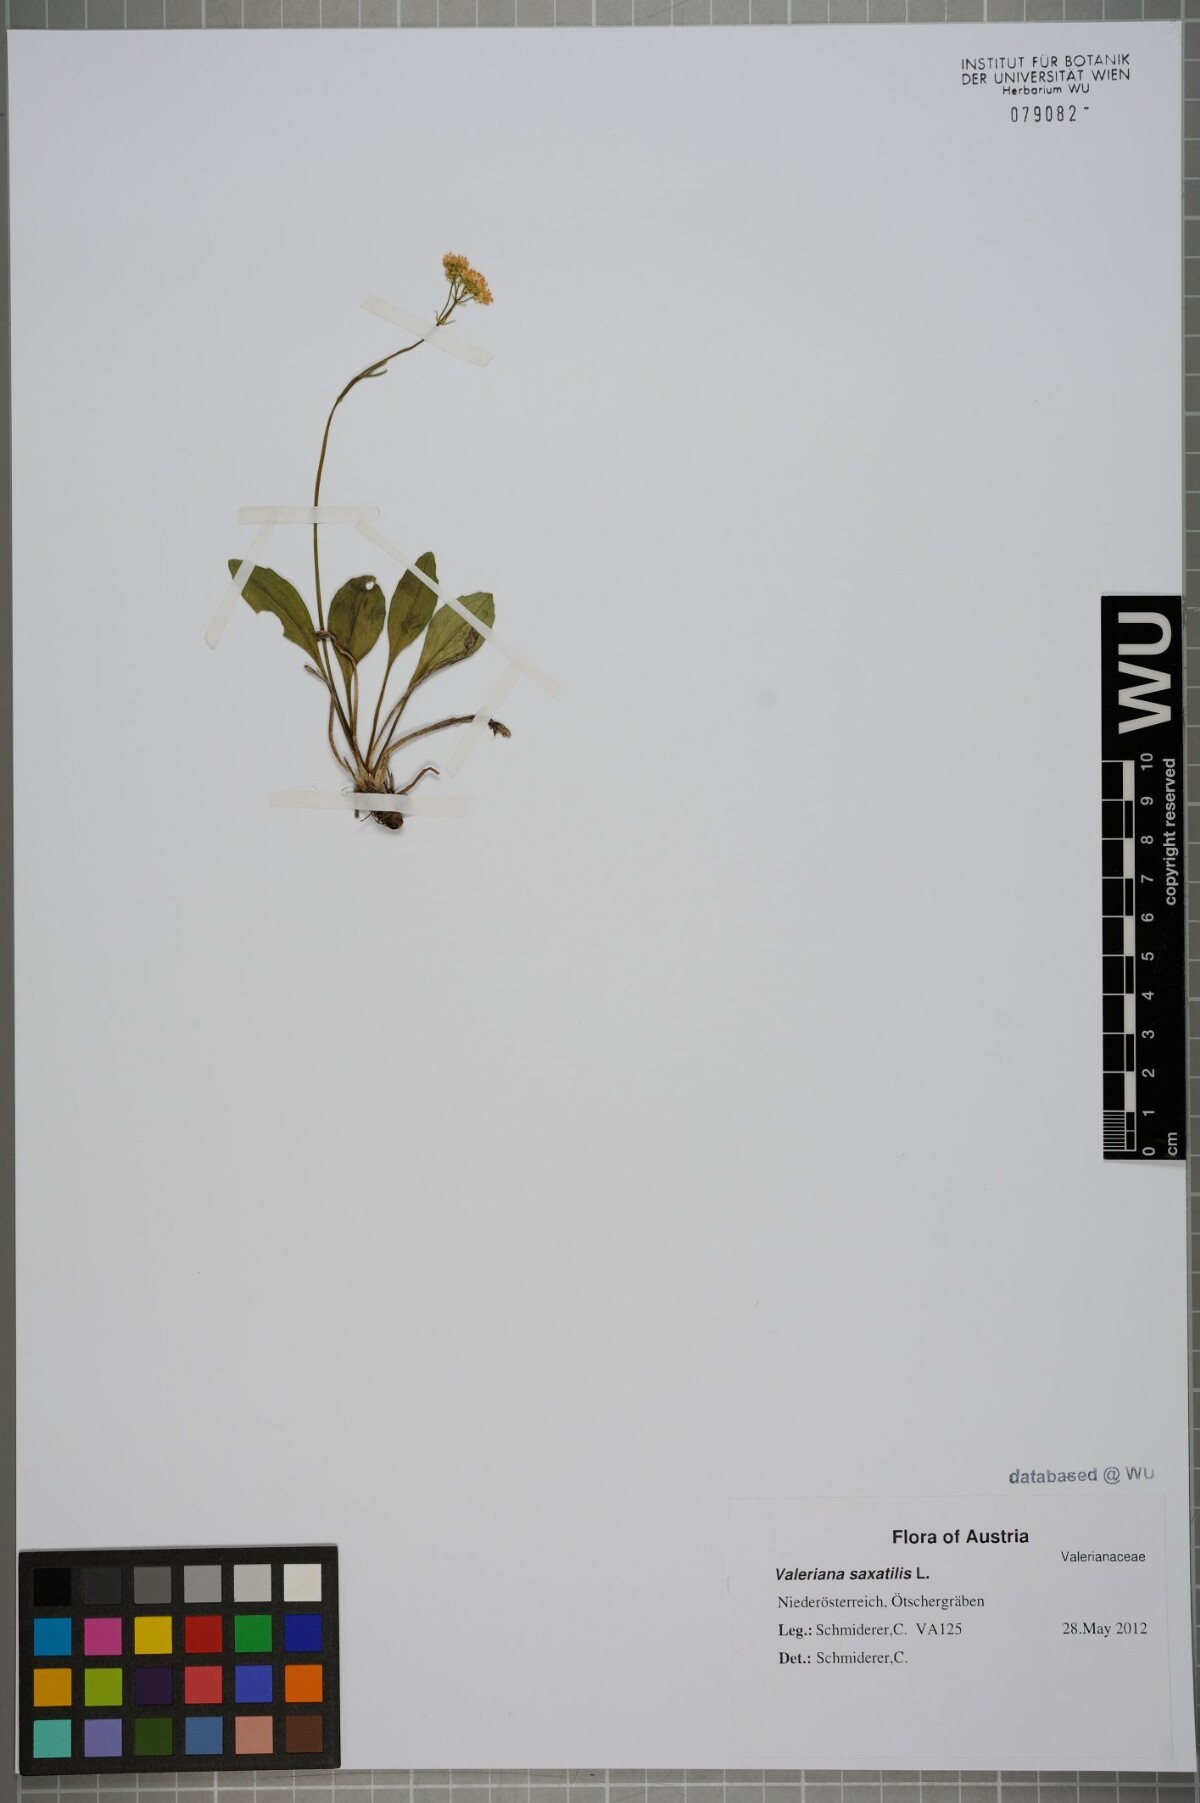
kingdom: Plantae
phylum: Tracheophyta
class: Magnoliopsida
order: Dipsacales
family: Caprifoliaceae
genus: Valeriana
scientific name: Valeriana saxatilis
